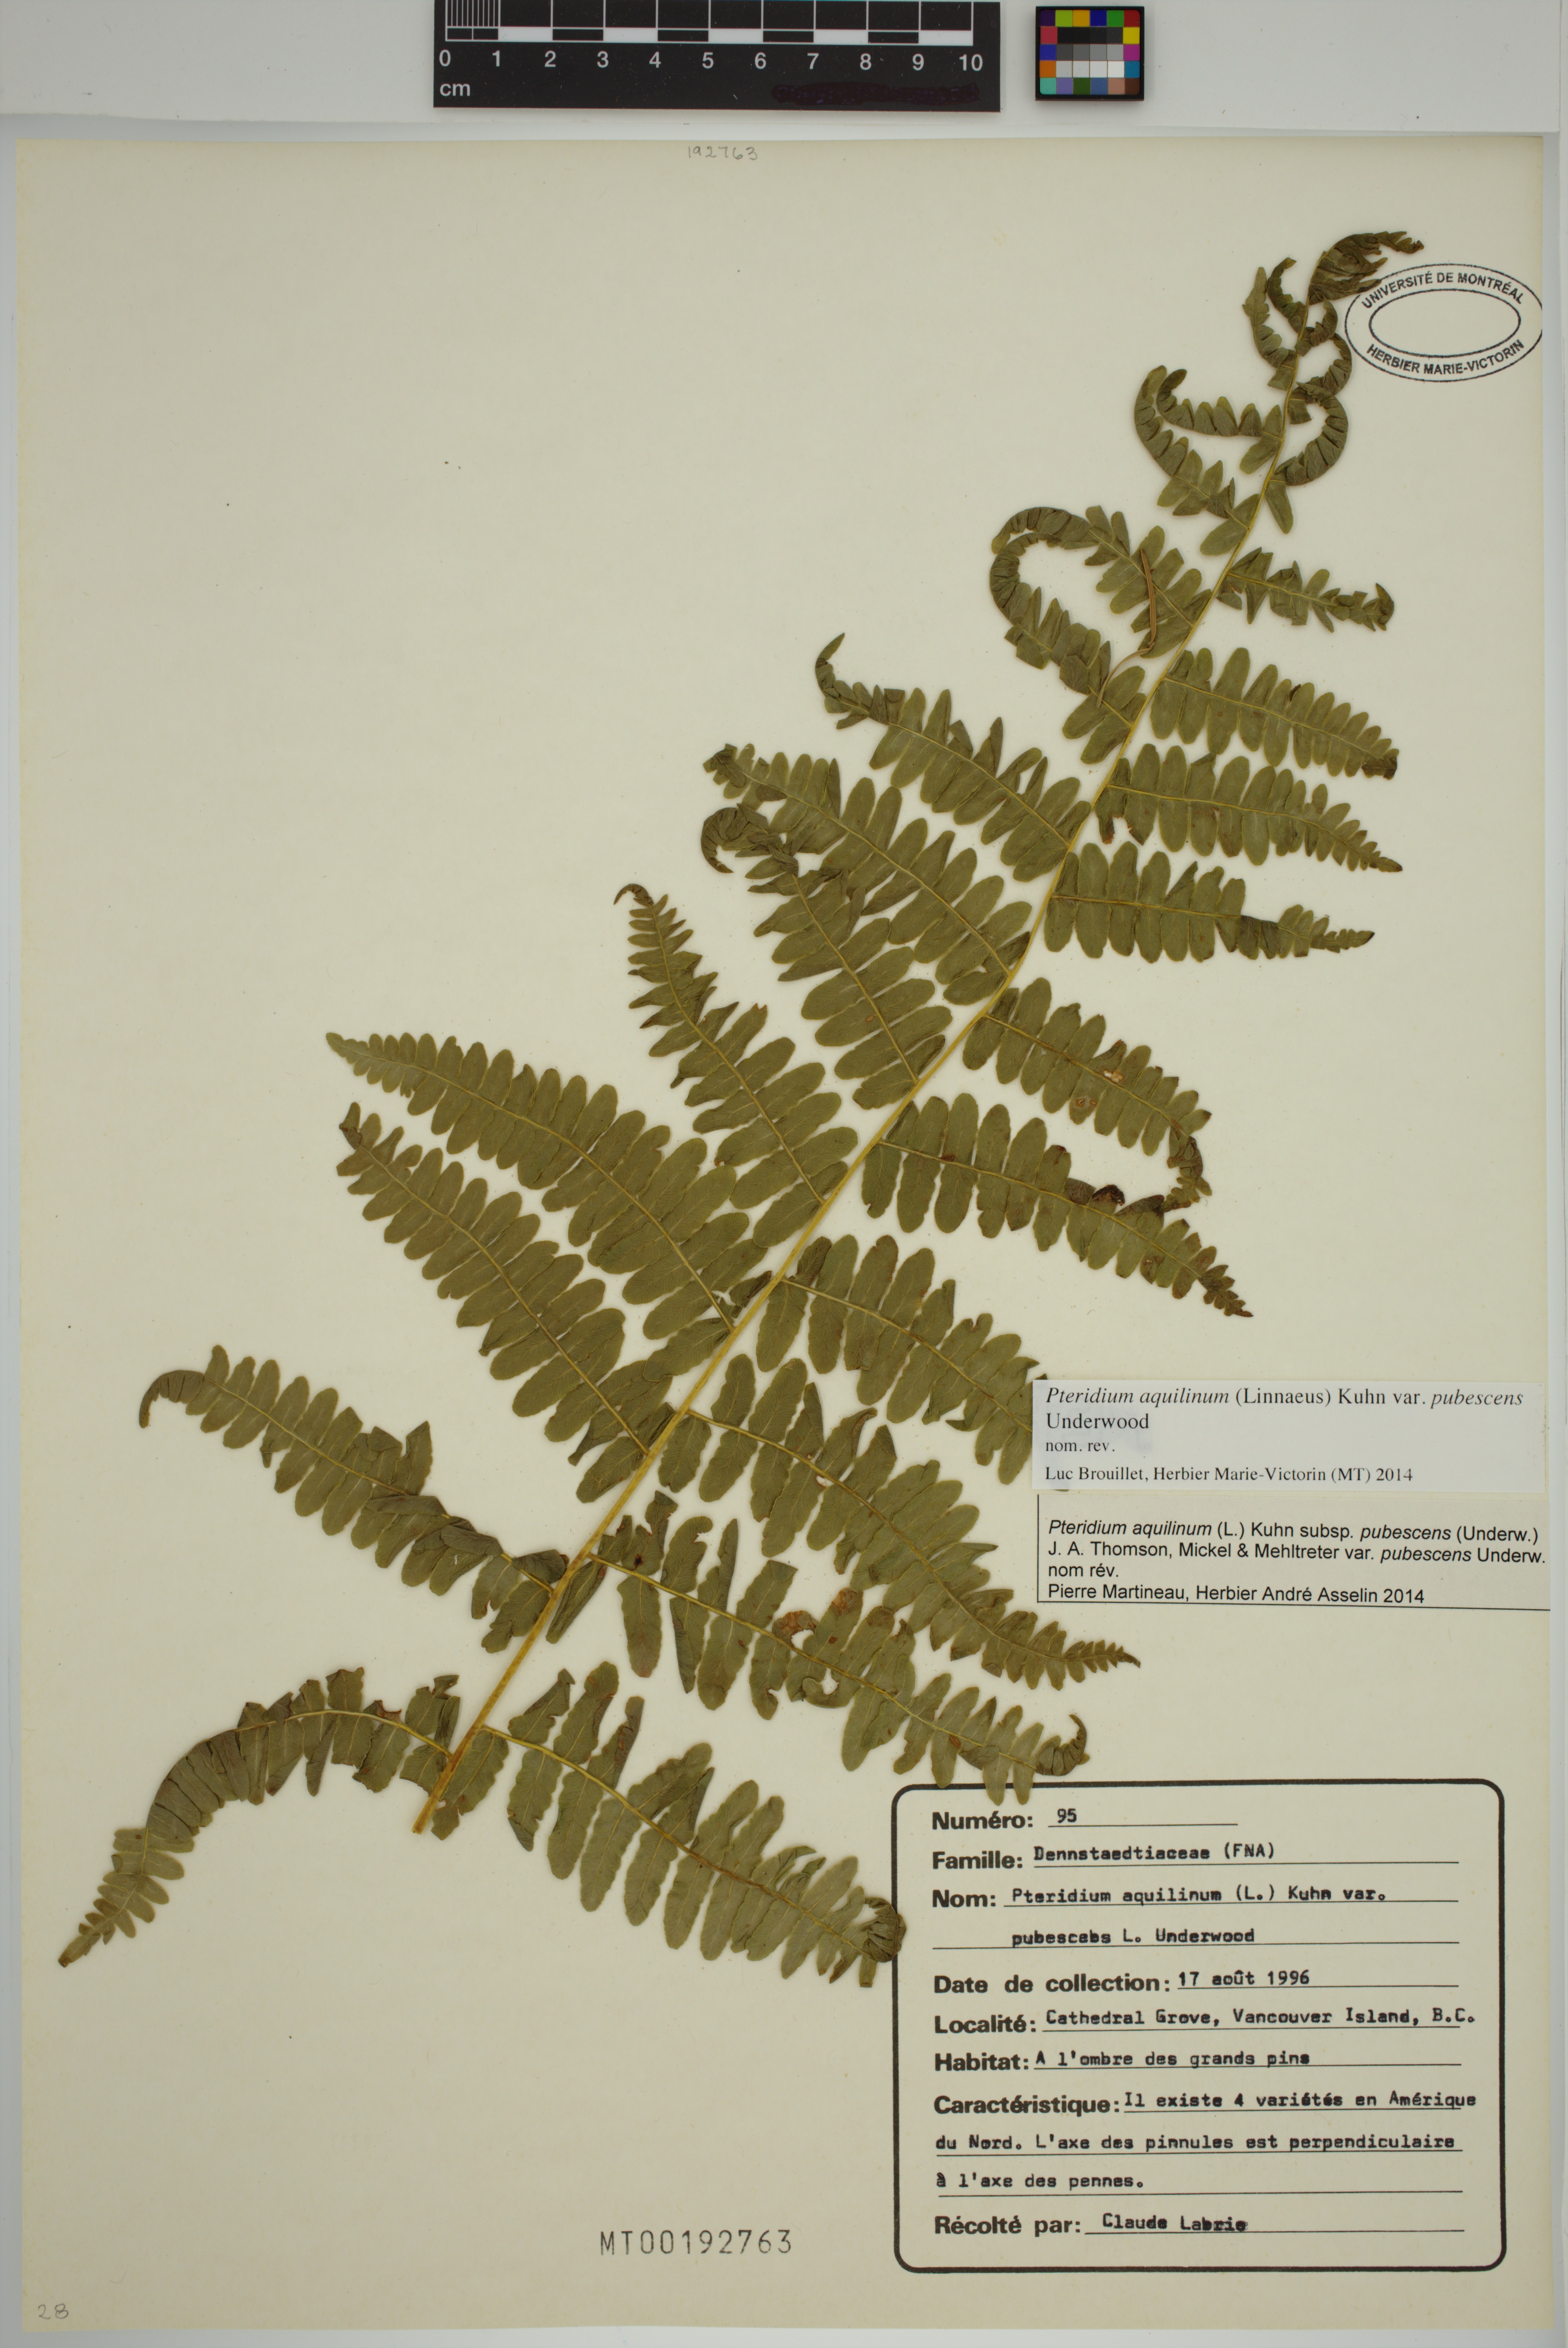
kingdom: Plantae
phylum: Tracheophyta
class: Polypodiopsida
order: Polypodiales
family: Dennstaedtiaceae
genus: Pteridium
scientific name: Pteridium aquilinum
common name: Bracken
